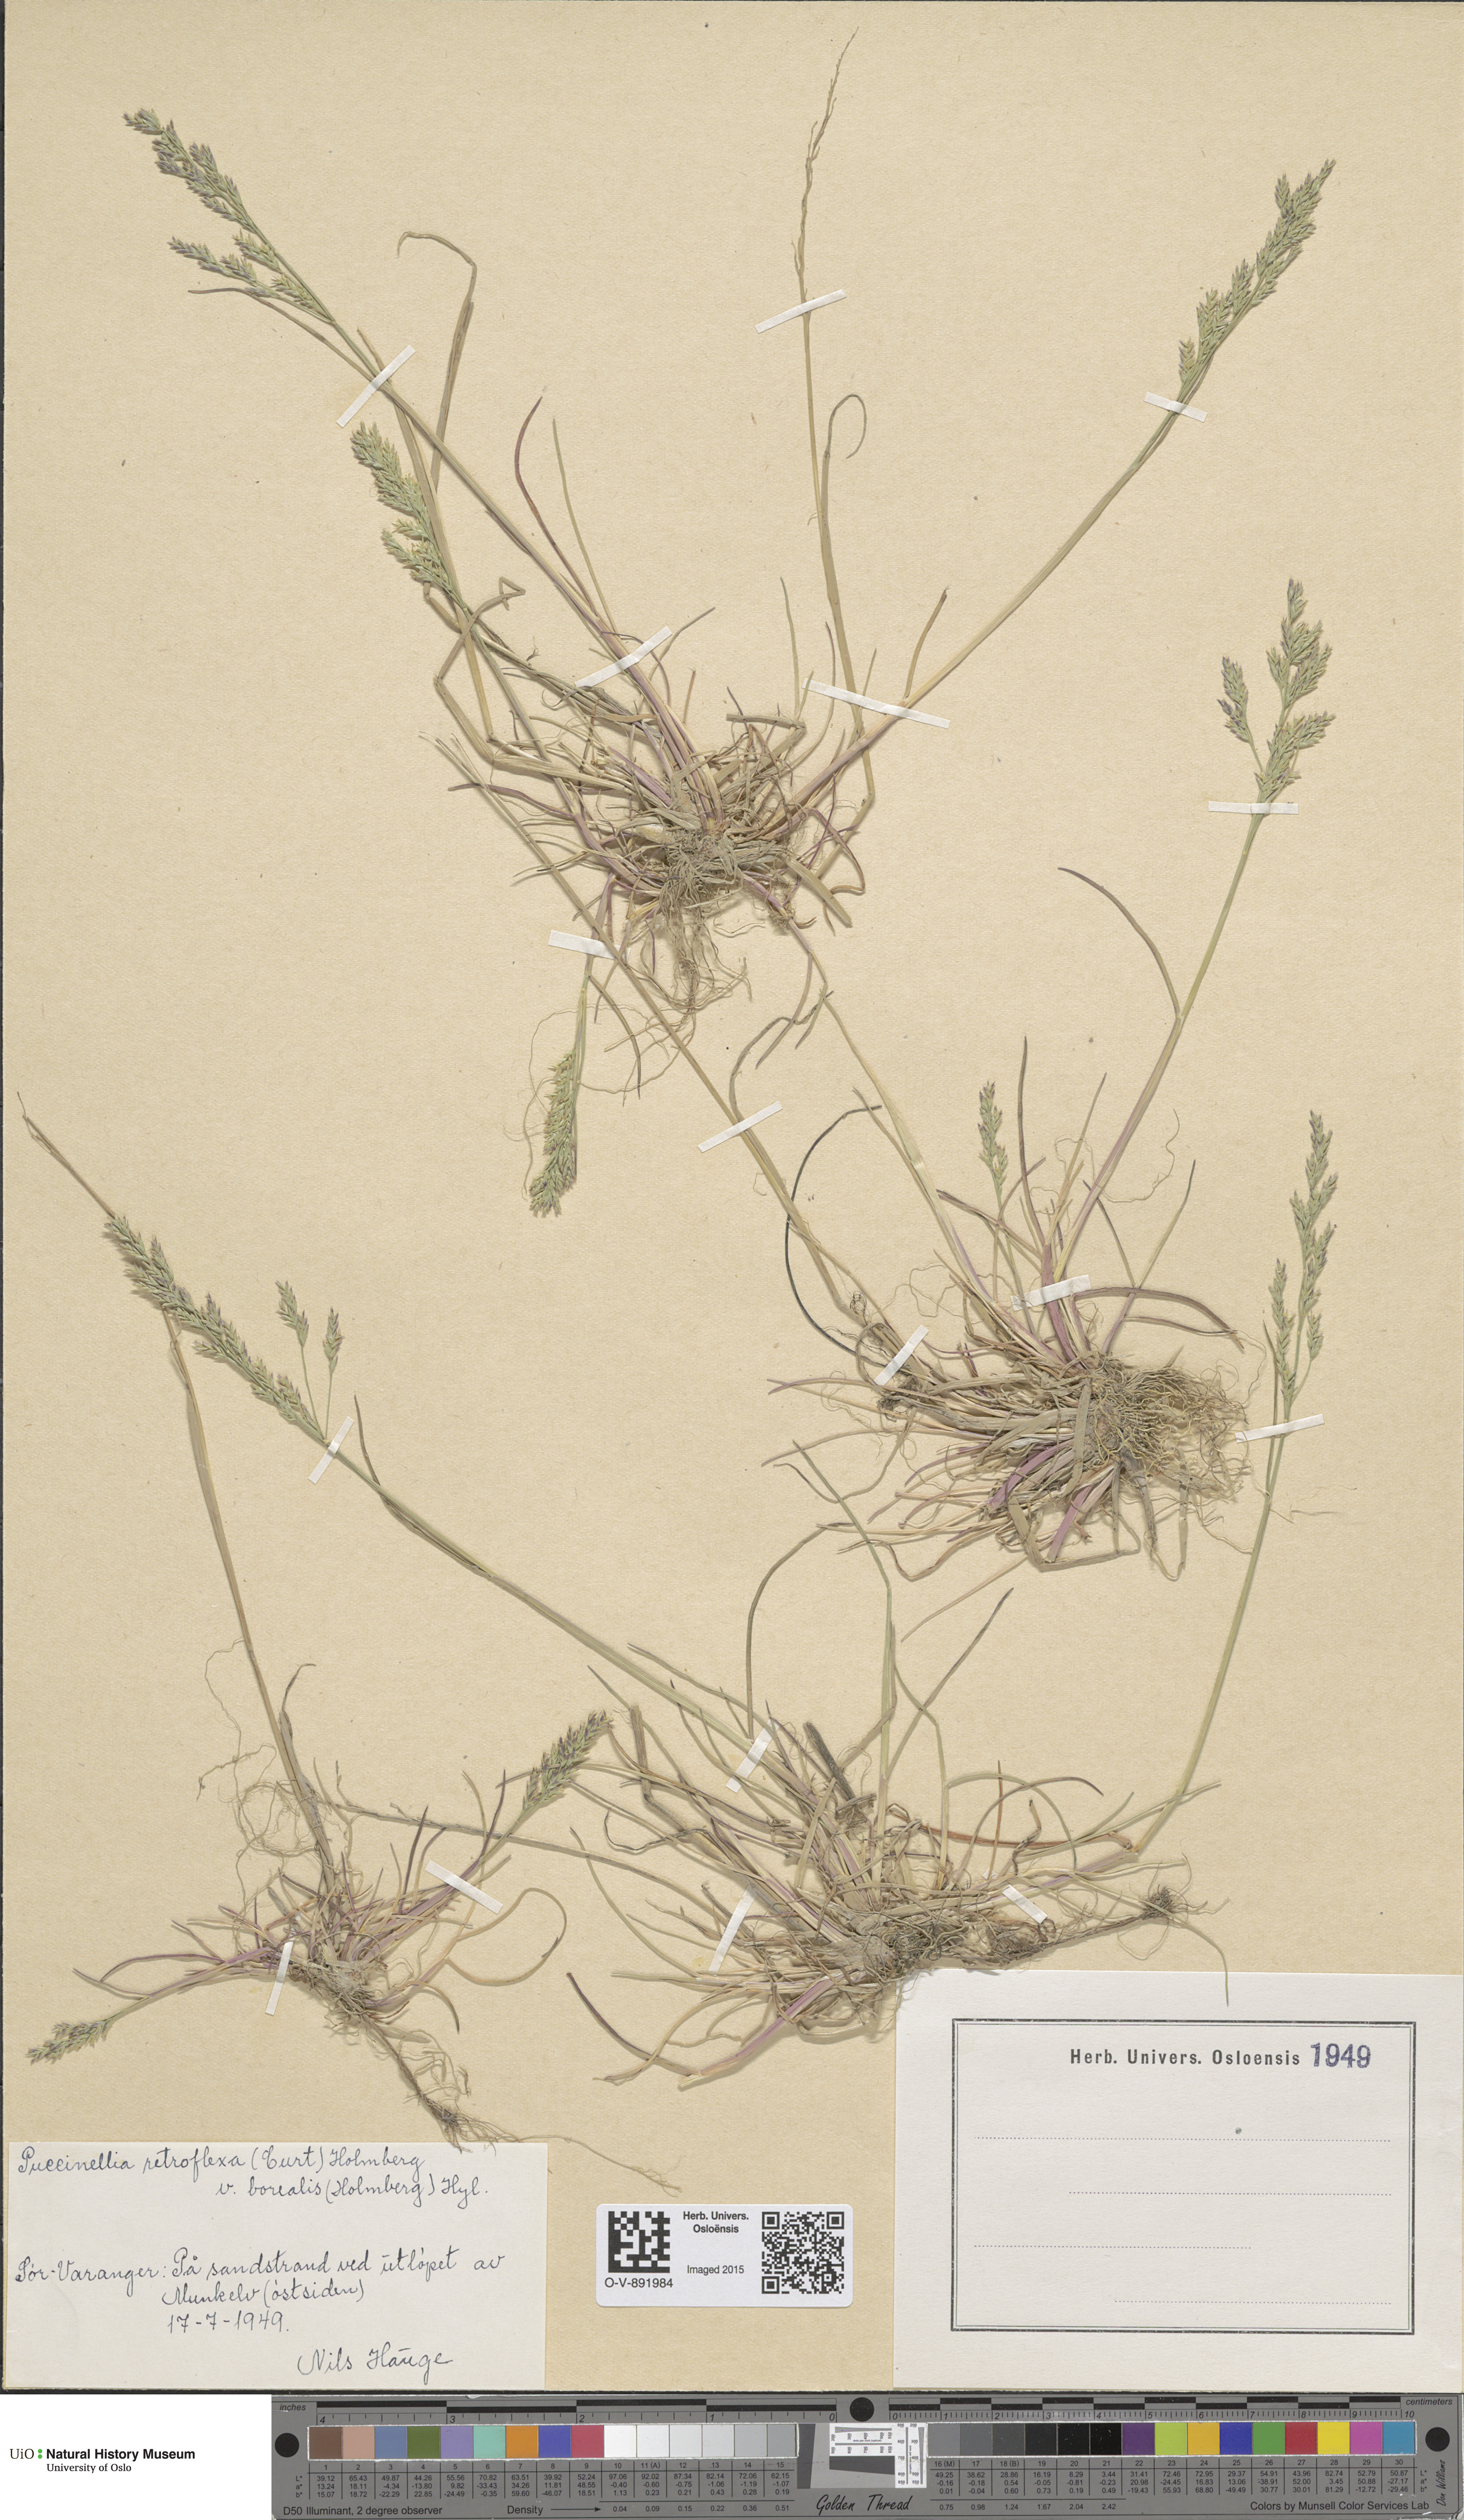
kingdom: Plantae
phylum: Tracheophyta
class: Liliopsida
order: Poales
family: Poaceae
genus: Puccinellia
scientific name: Puccinellia distans
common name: Weeping alkaligrass
